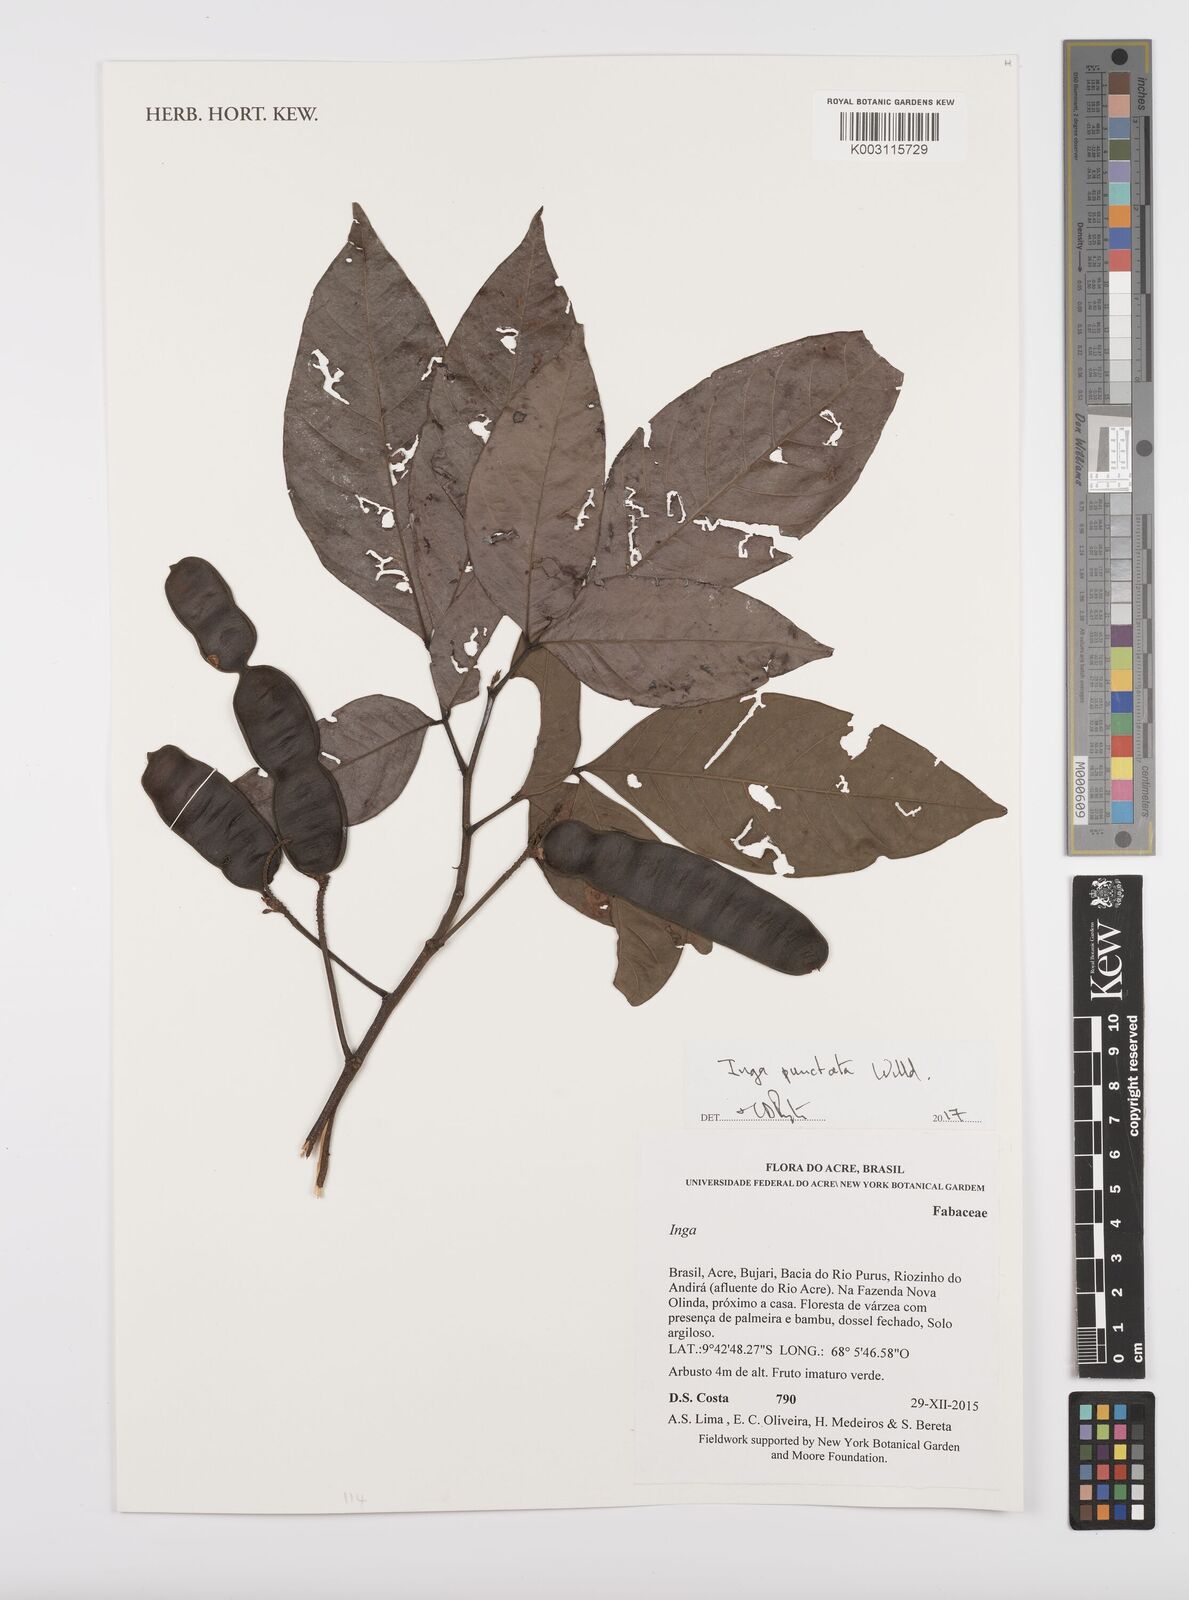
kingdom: Plantae
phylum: Tracheophyta
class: Magnoliopsida
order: Fabales
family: Fabaceae
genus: Inga
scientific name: Inga punctata
